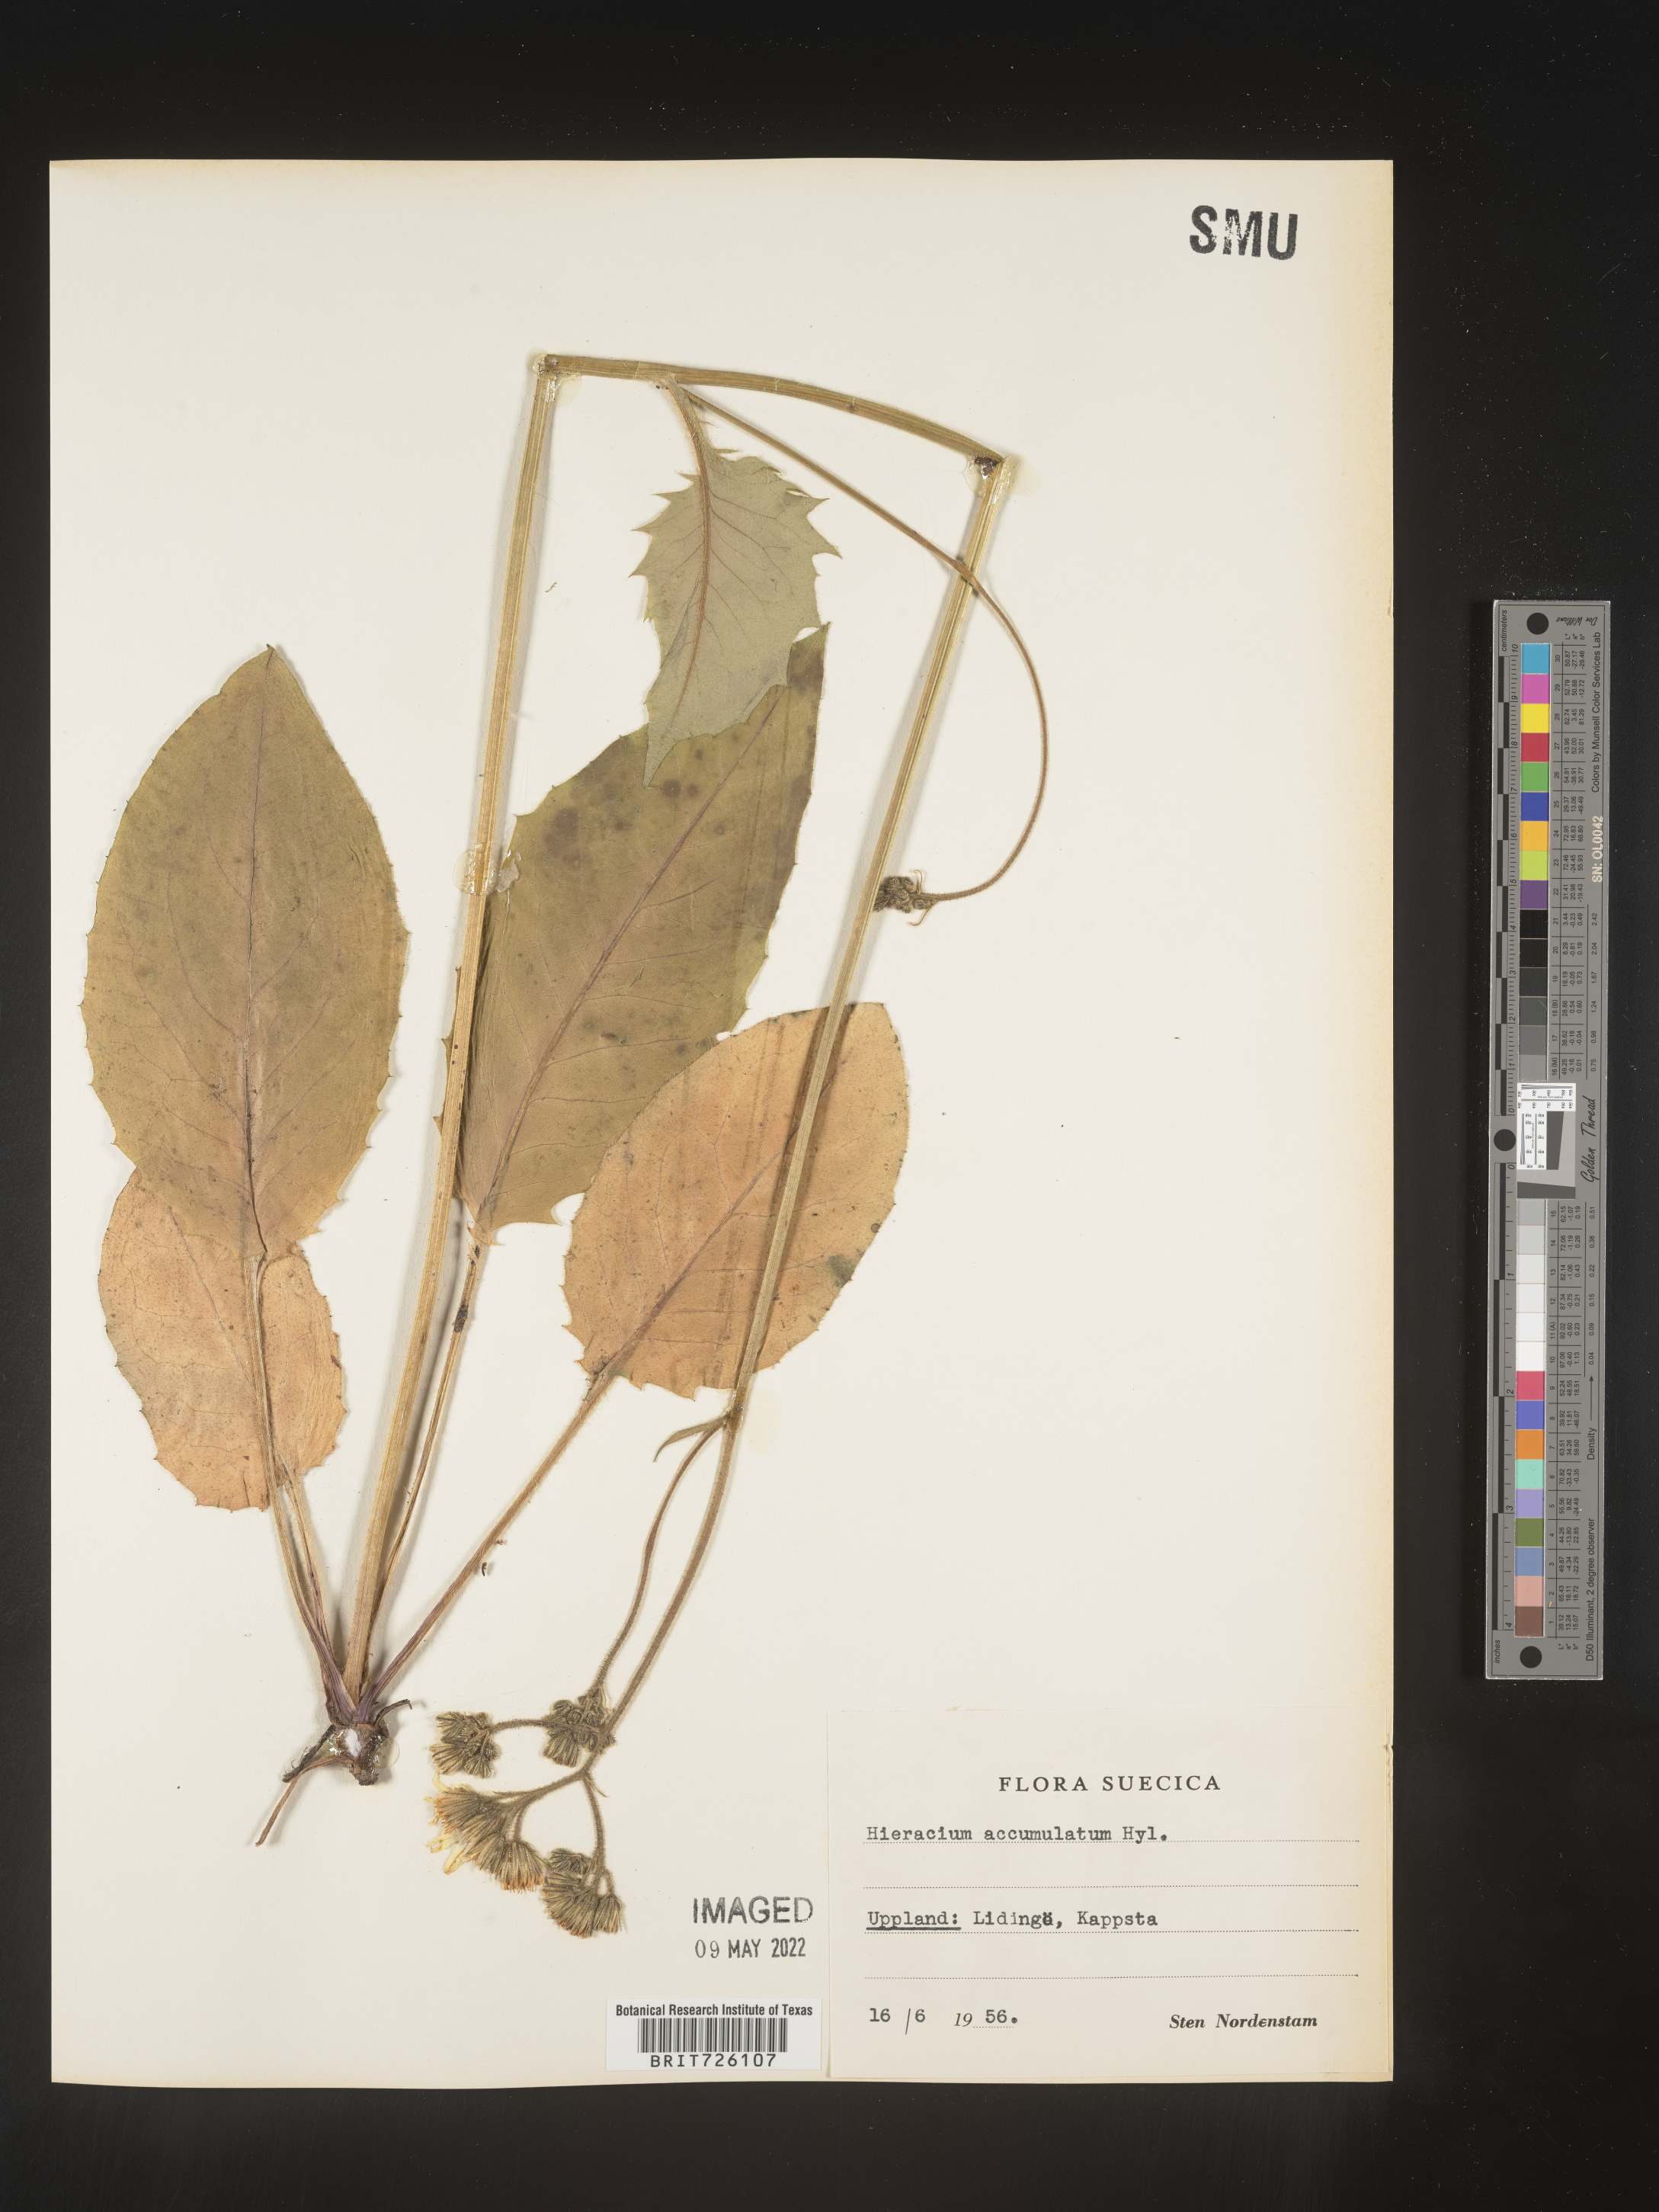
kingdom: Plantae
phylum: Tracheophyta
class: Magnoliopsida
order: Asterales
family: Asteraceae
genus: Hieracium
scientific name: Hieracium
